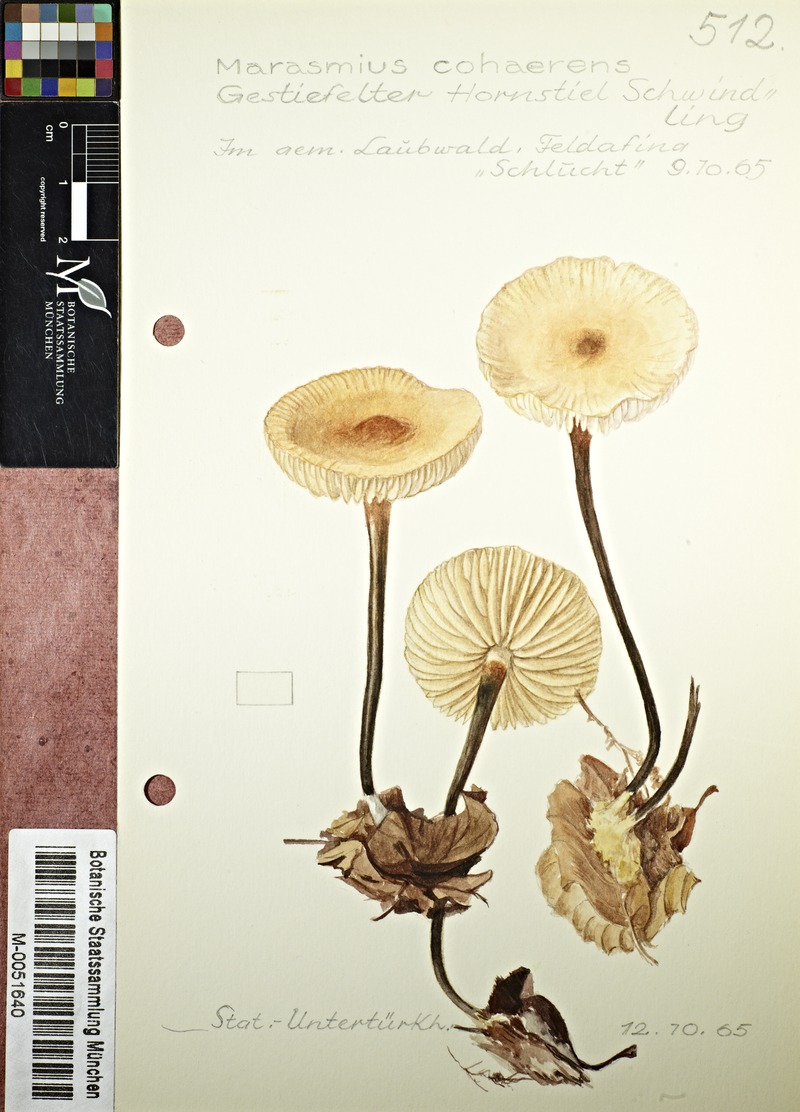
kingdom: Fungi
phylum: Basidiomycota
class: Agaricomycetes
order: Agaricales
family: Marasmiaceae
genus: Marasmius
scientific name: Marasmius cohaerens
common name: Bristled parachute
